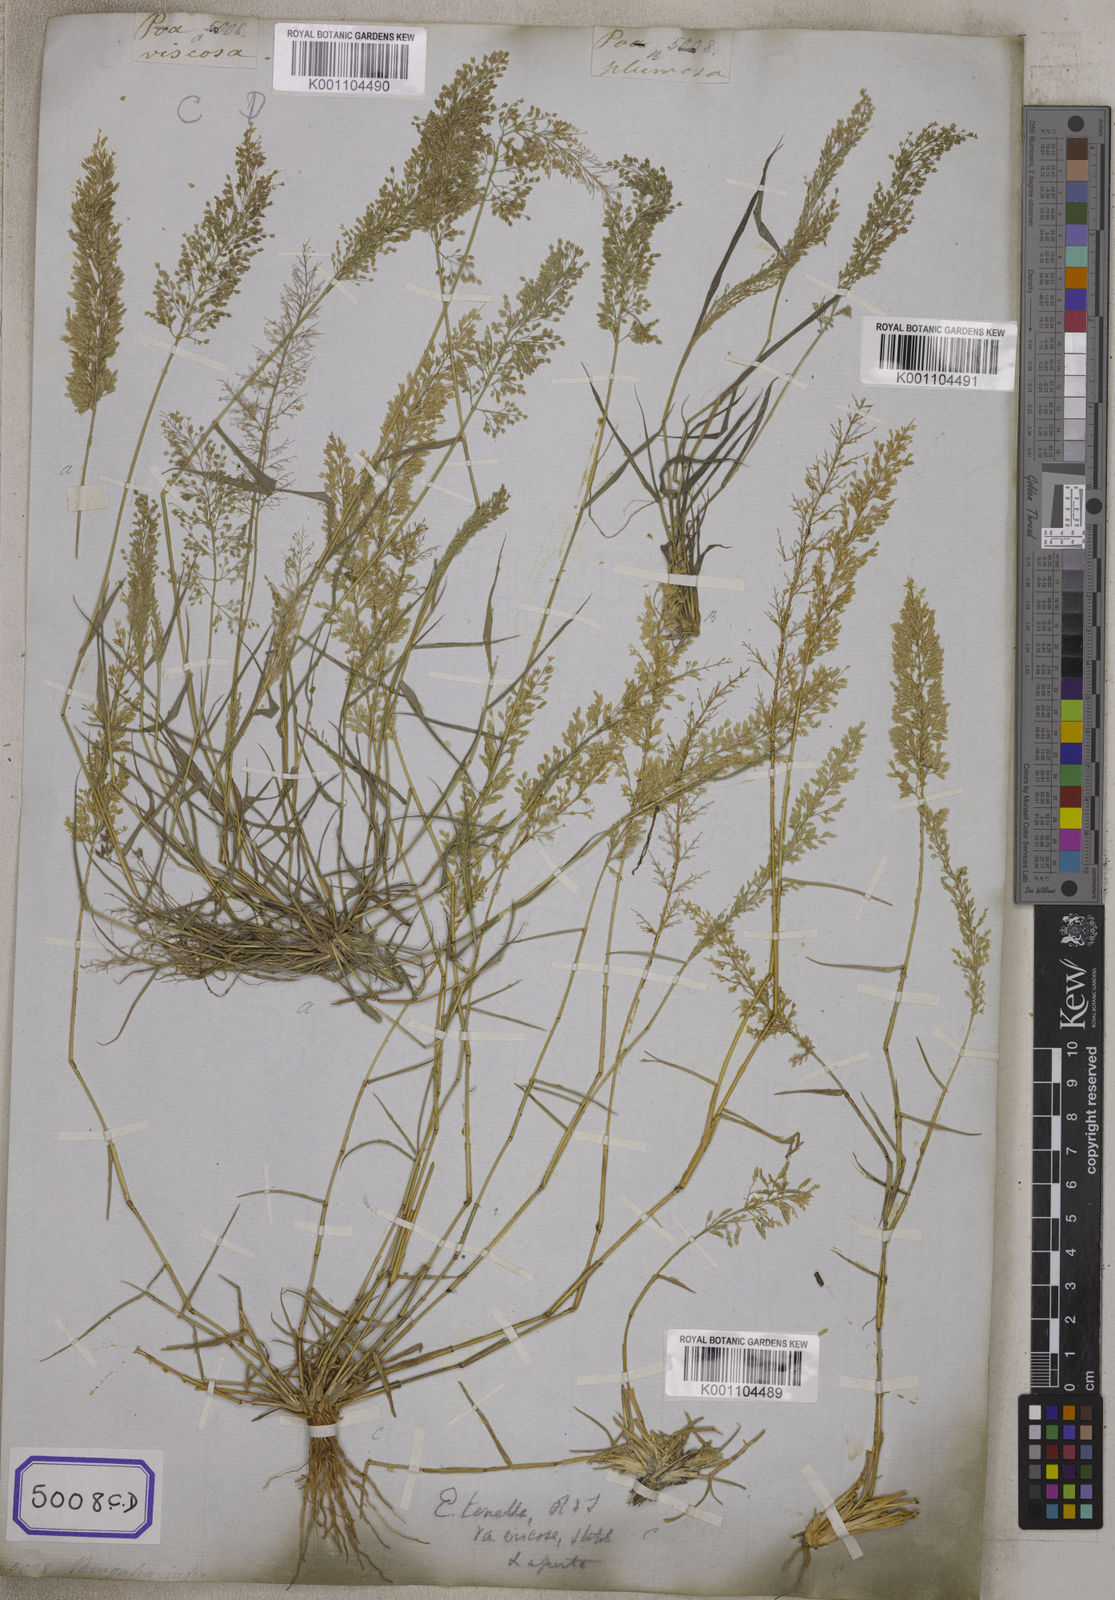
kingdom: Plantae
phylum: Tracheophyta
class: Liliopsida
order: Poales
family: Poaceae
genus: Eragrostis
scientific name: Eragrostis
